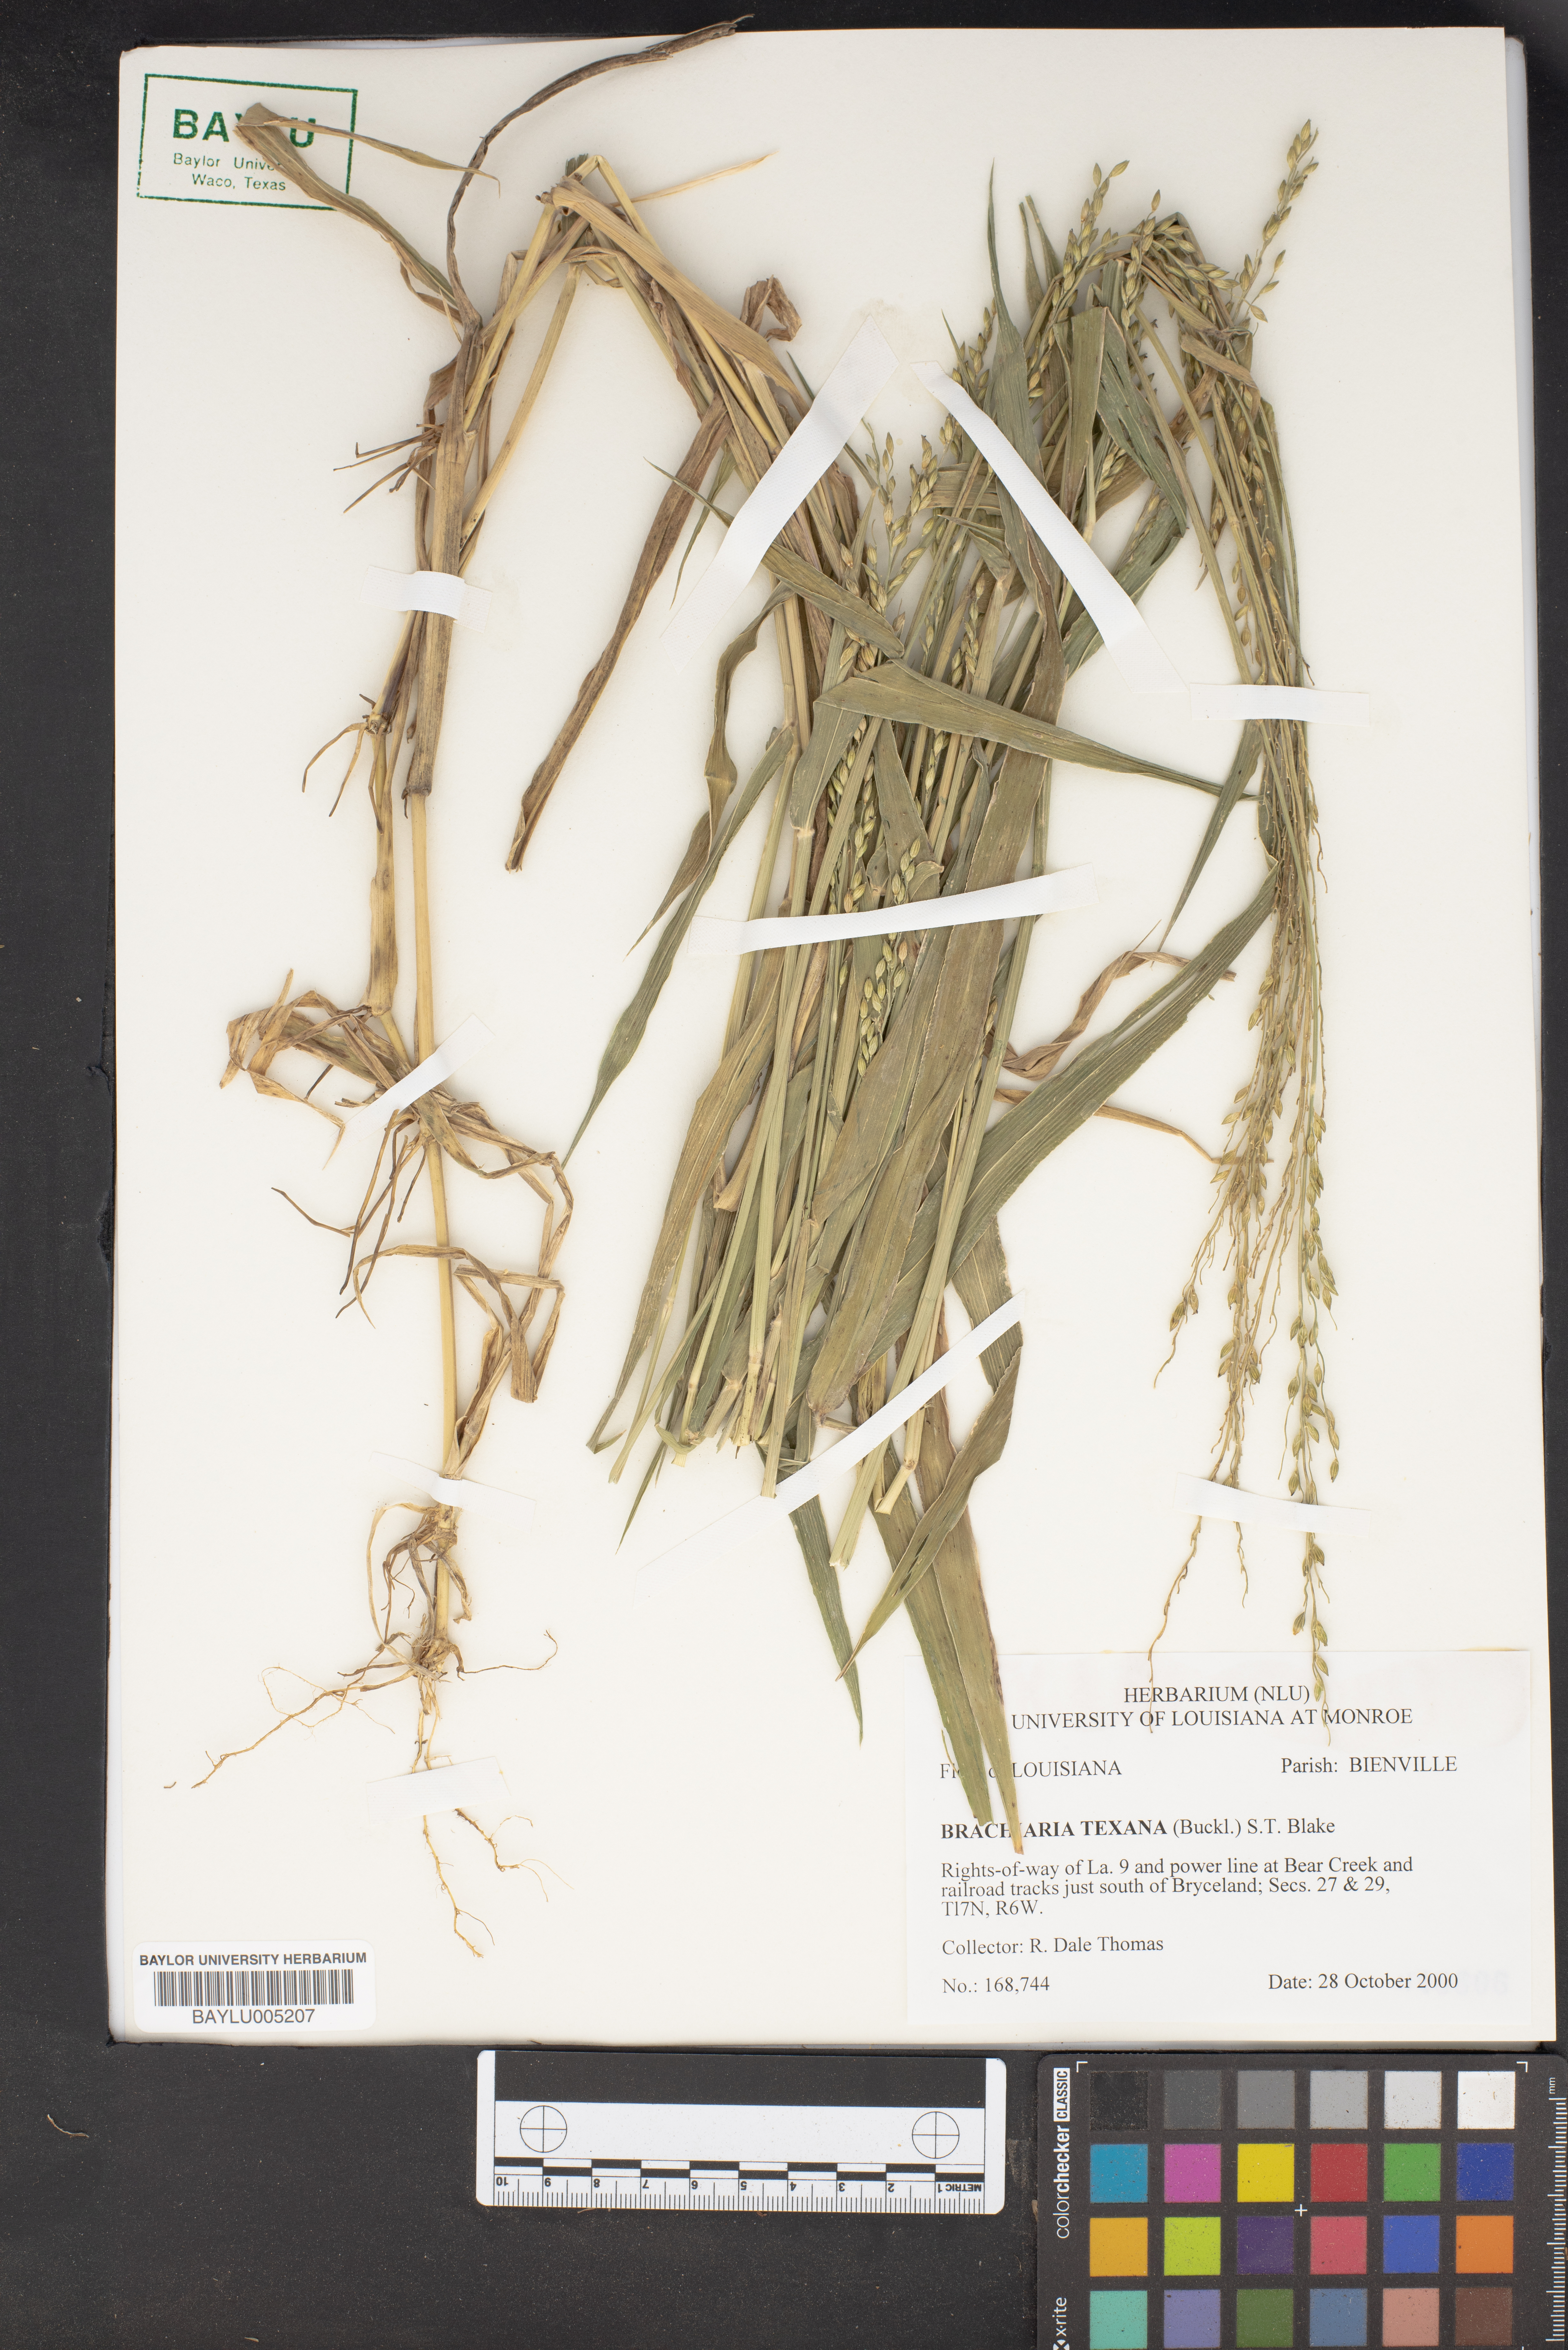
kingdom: Plantae
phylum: Tracheophyta
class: Liliopsida
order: Poales
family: Poaceae
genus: Urochloa
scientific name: Urochloa texana
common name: Texas millet
